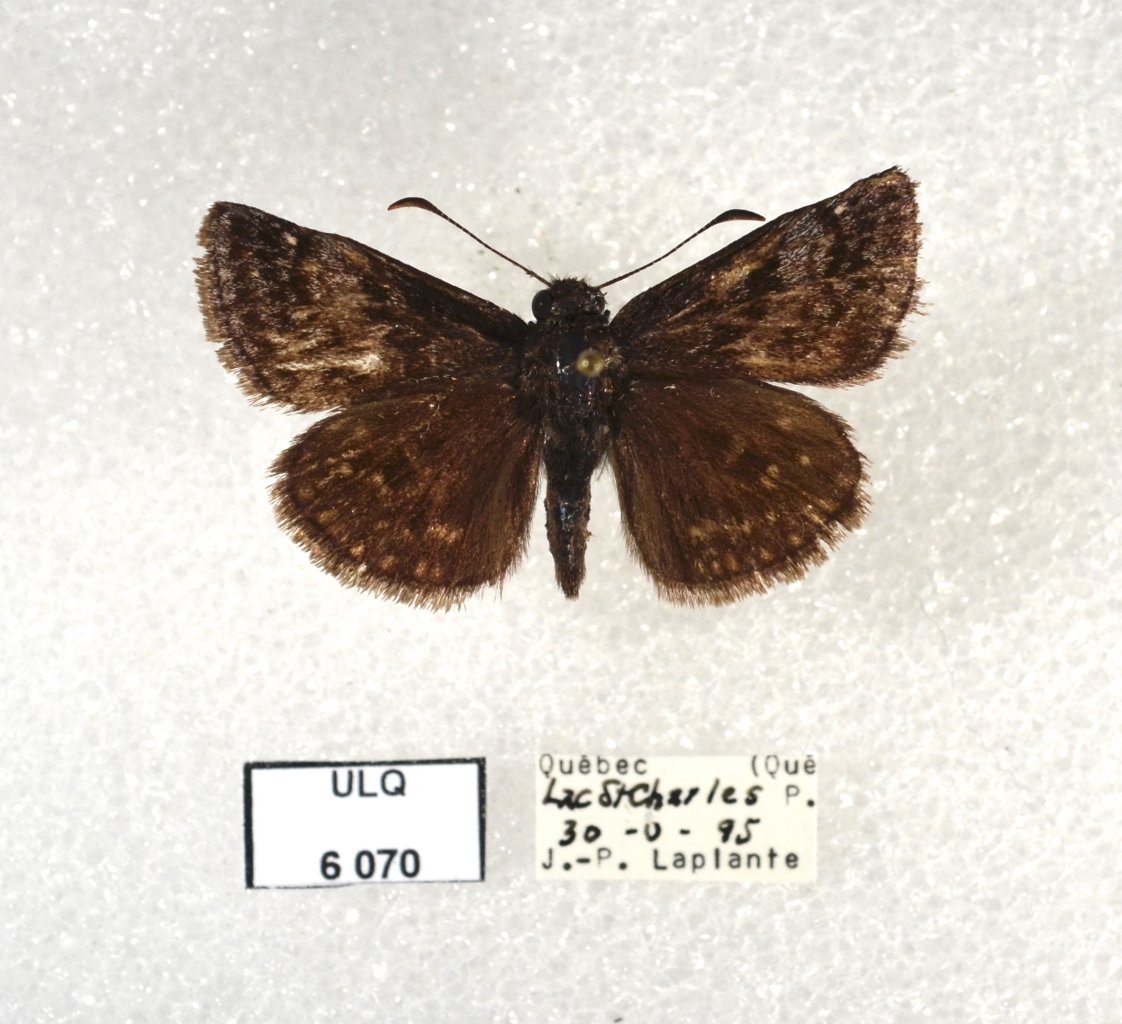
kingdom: Animalia
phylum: Arthropoda
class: Insecta
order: Lepidoptera
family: Hesperiidae
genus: Erynnis
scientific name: Erynnis icelus
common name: Dreamy Duskywing
